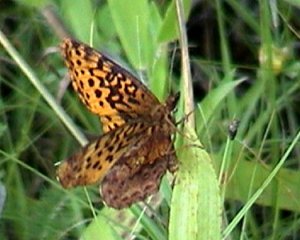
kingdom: Animalia
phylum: Arthropoda
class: Insecta
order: Lepidoptera
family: Nymphalidae
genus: Clossiana
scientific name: Clossiana toddi
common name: Meadow Fritillary
